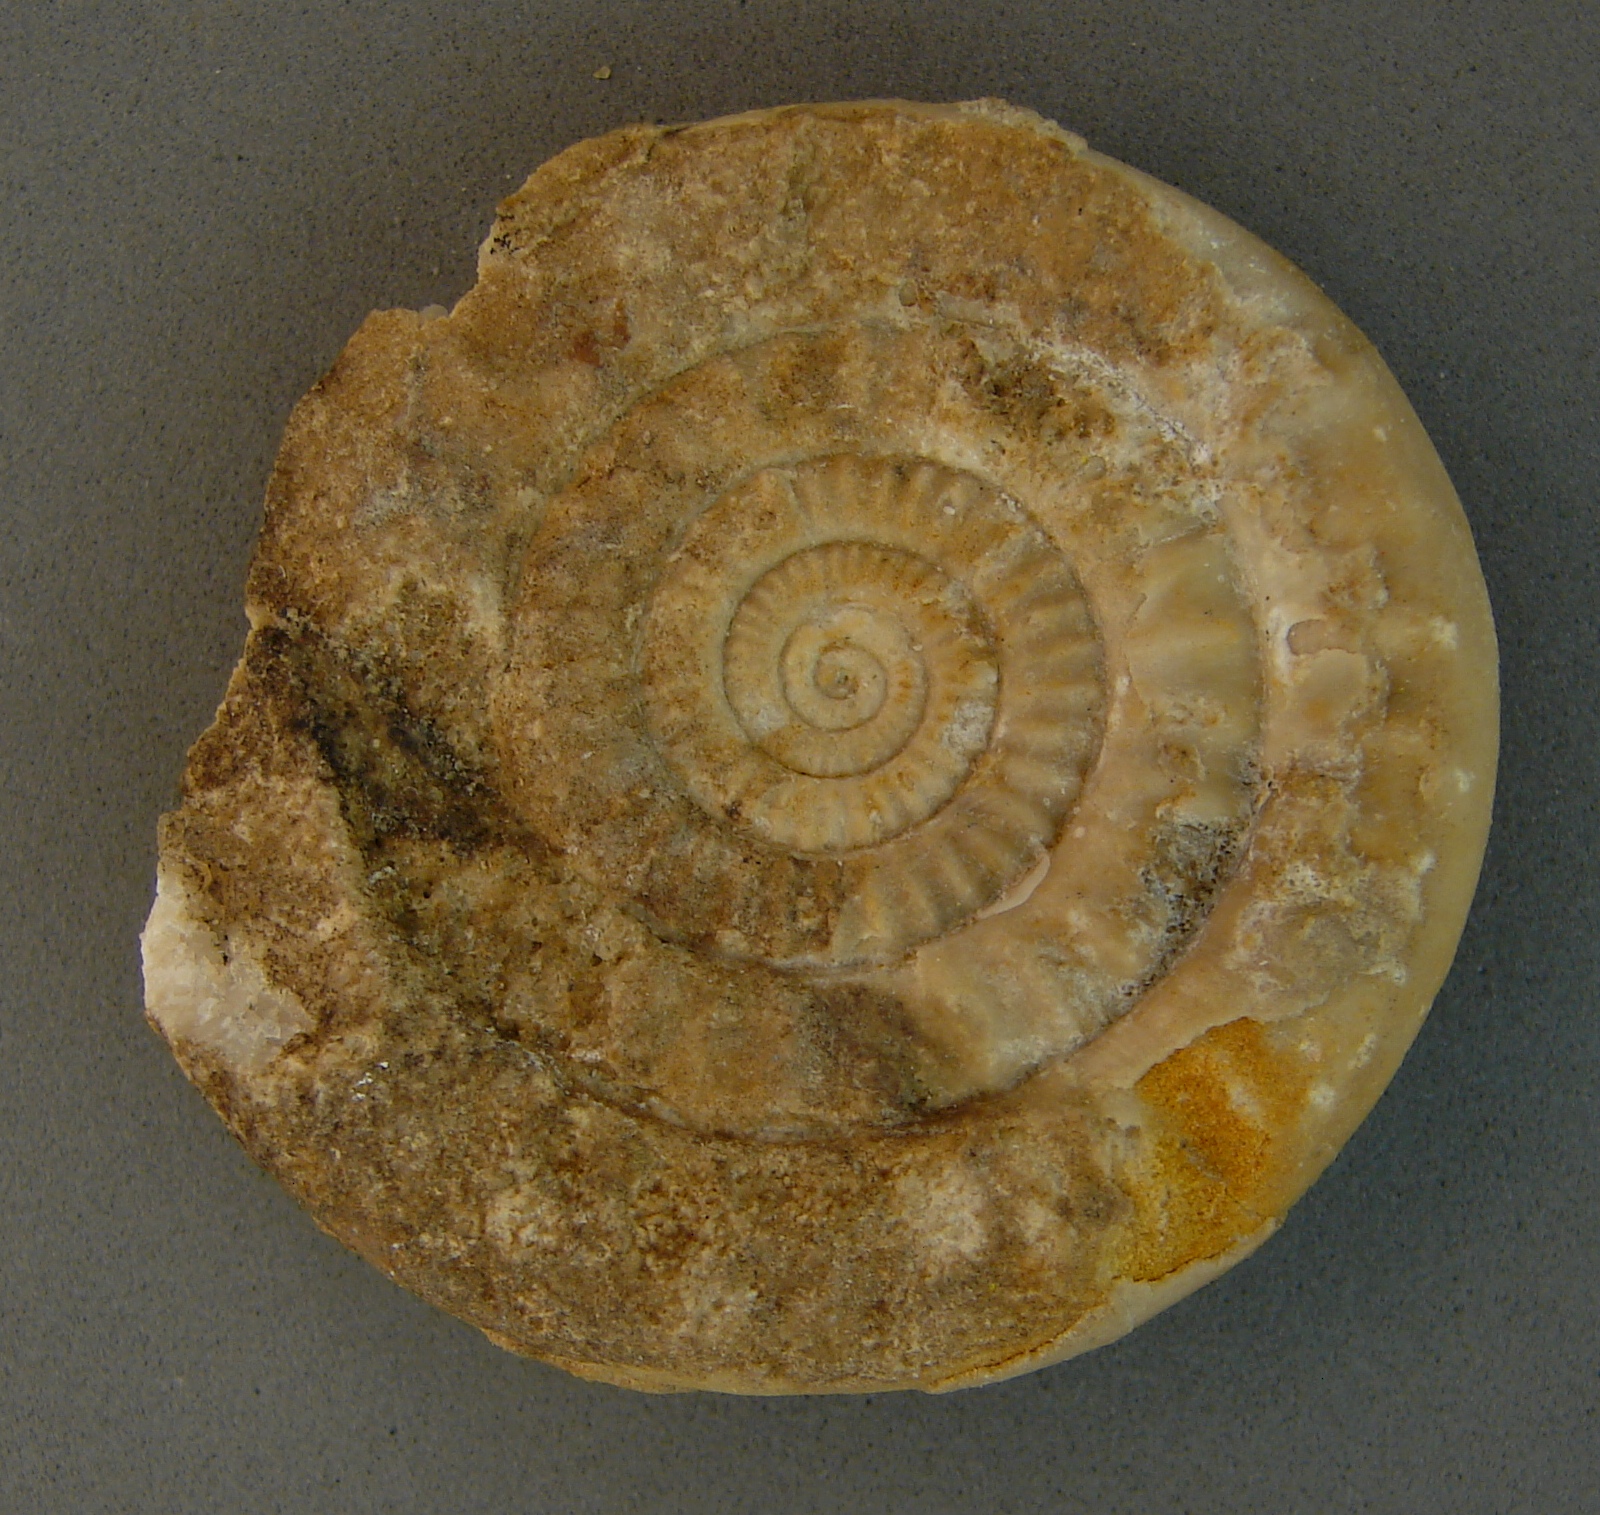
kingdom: Animalia
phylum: Mollusca
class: Cephalopoda
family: Psiloceratidae
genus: Caloceras
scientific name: Caloceras pirondi
